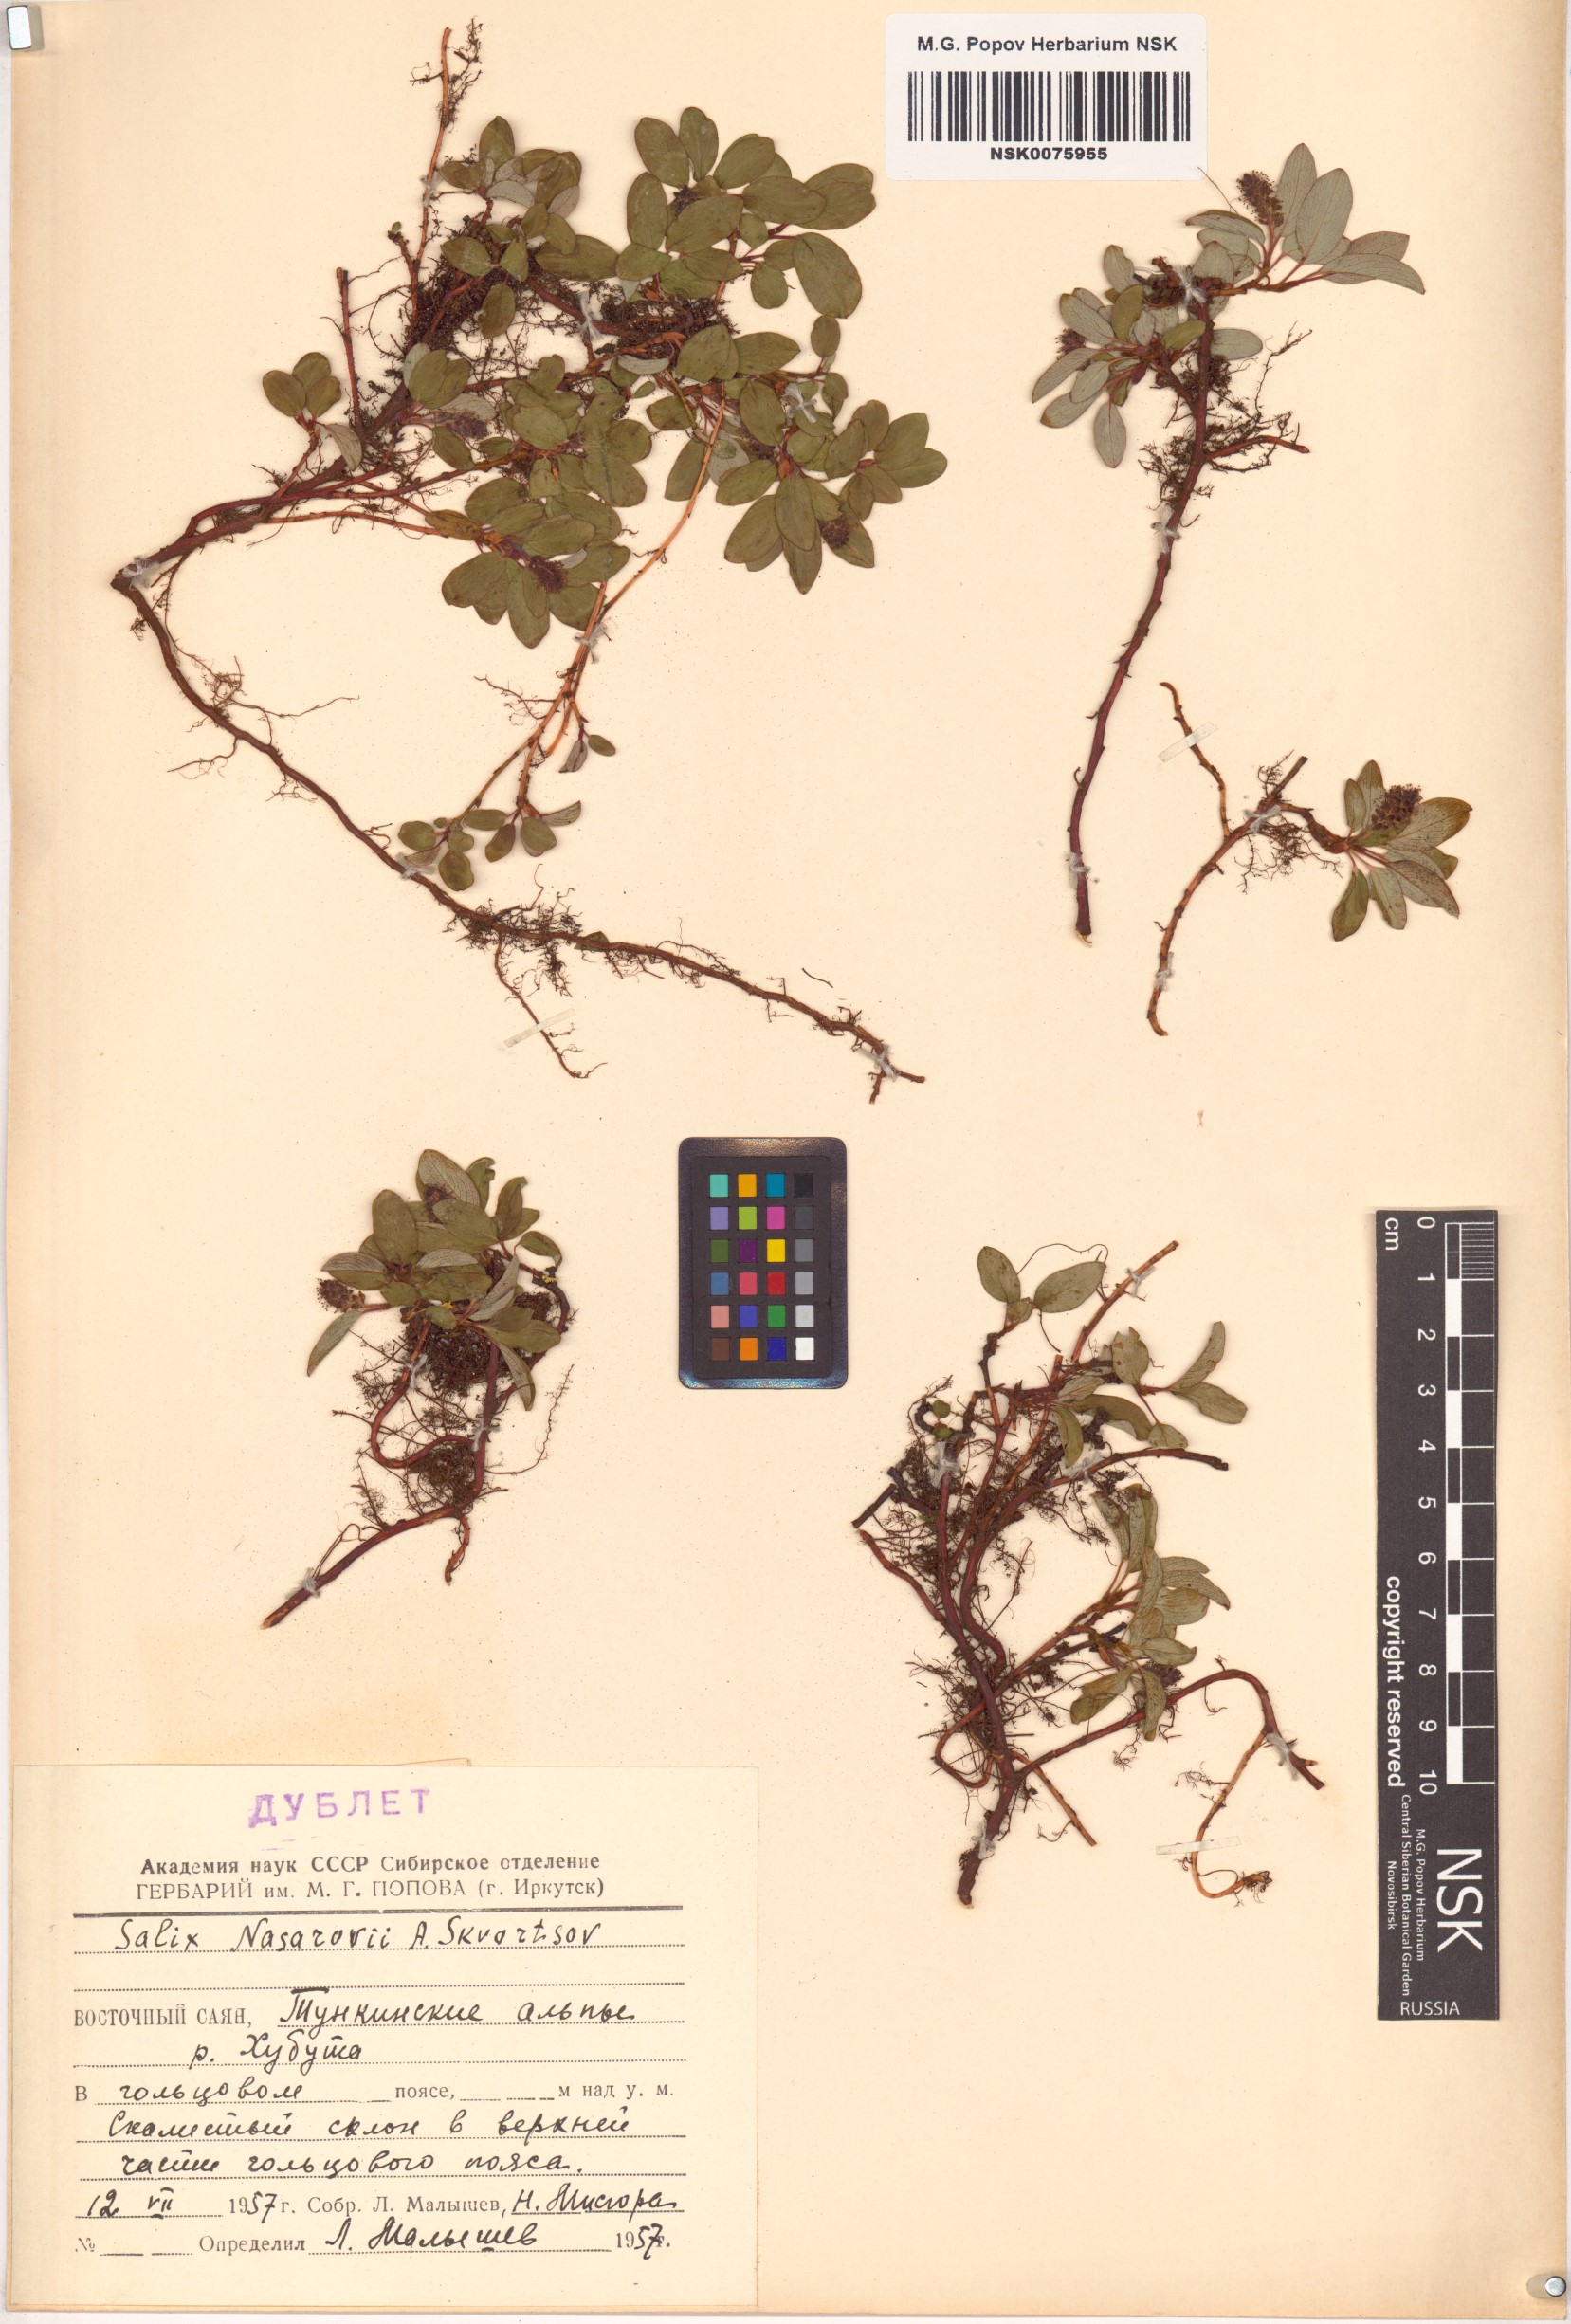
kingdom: Plantae
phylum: Tracheophyta
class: Magnoliopsida
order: Malpighiales
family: Salicaceae
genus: Salix
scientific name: Salix nasarovii
